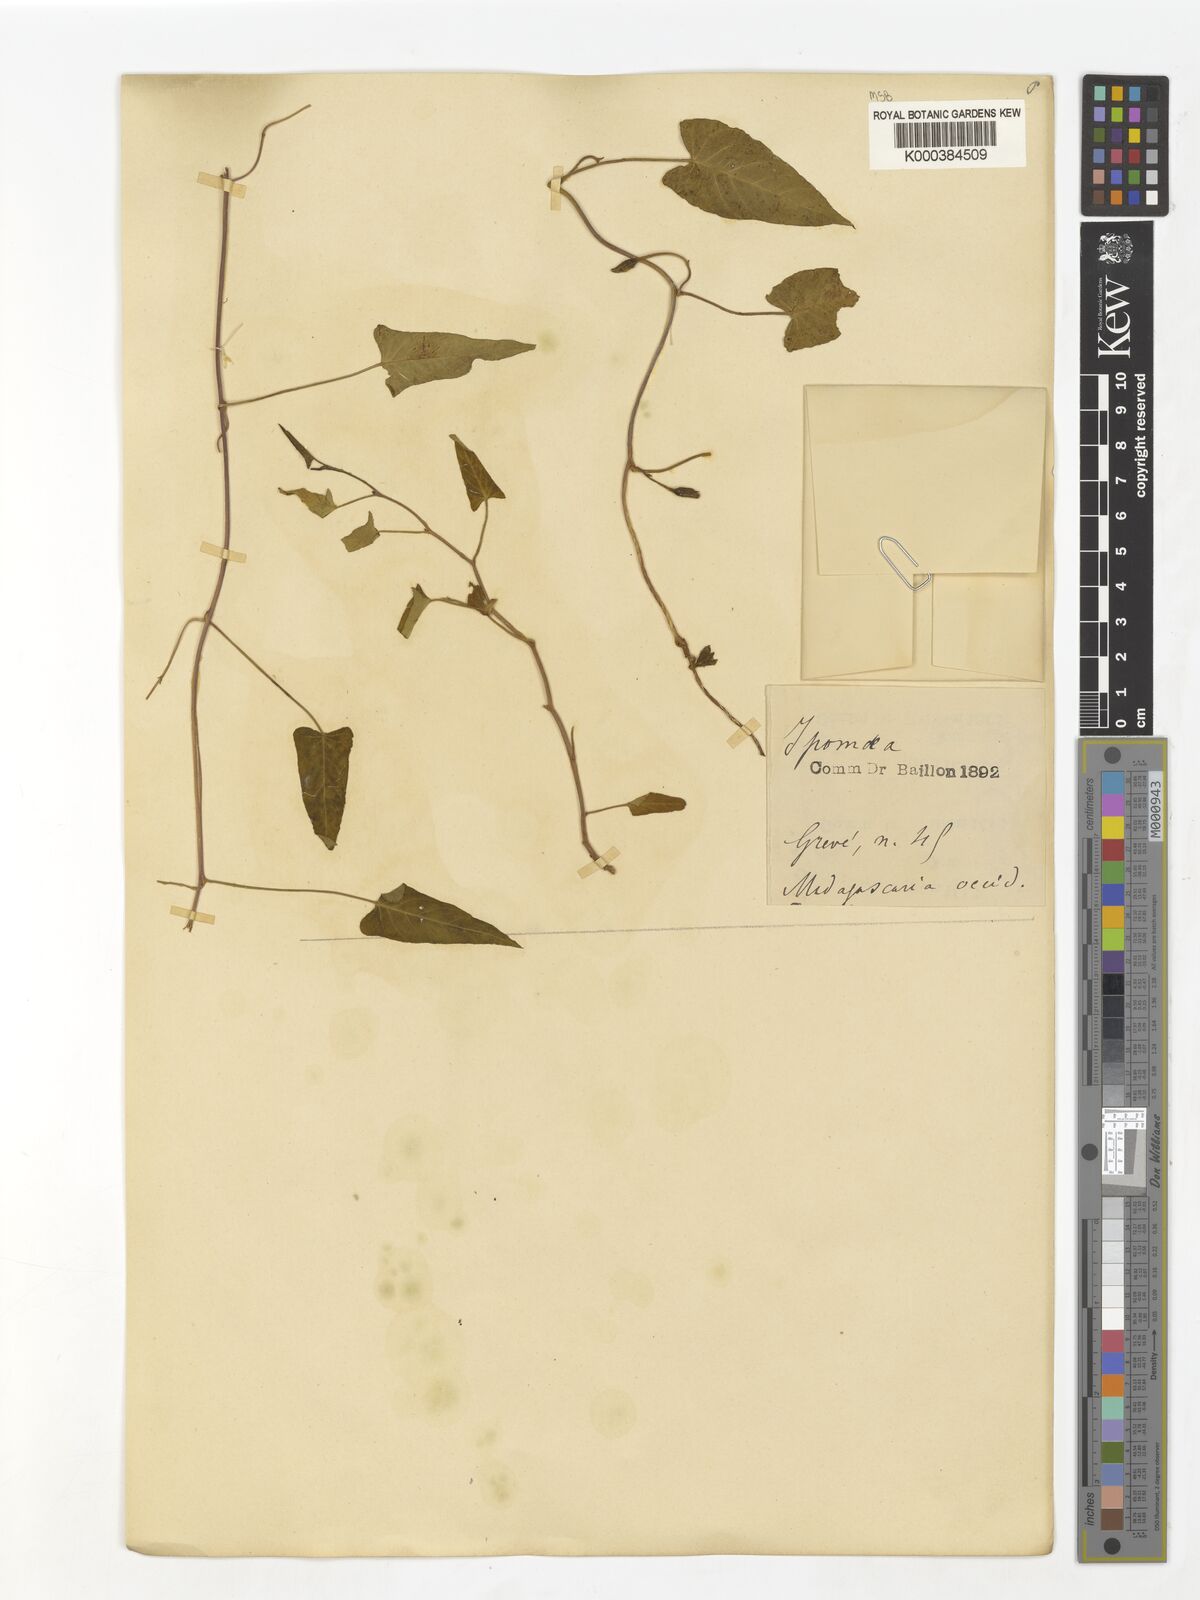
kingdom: Plantae
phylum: Tracheophyta
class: Magnoliopsida
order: Solanales
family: Convolvulaceae
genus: Ipomoea
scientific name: Ipomoea aquatica
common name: Swamp morning-glory
